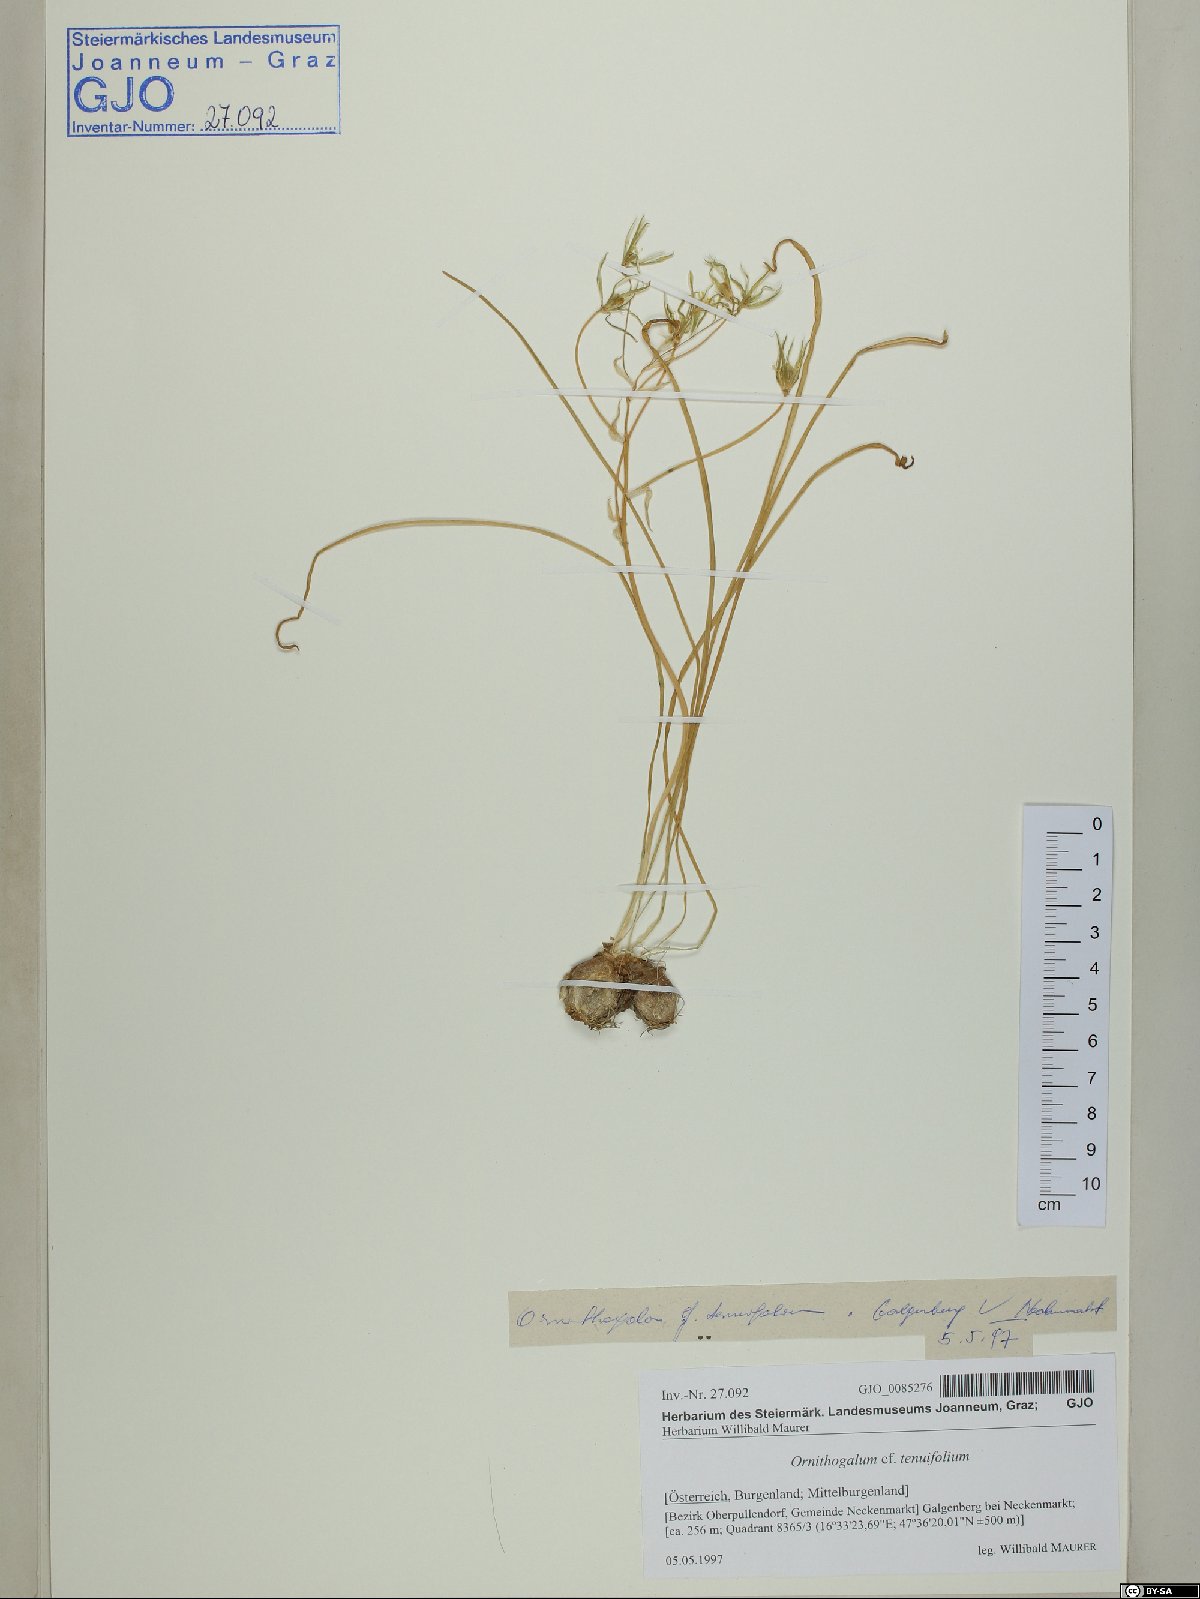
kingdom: Plantae
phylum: Tracheophyta
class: Liliopsida
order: Asparagales
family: Asparagaceae
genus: Ornithogalum
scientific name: Ornithogalum gussonei
